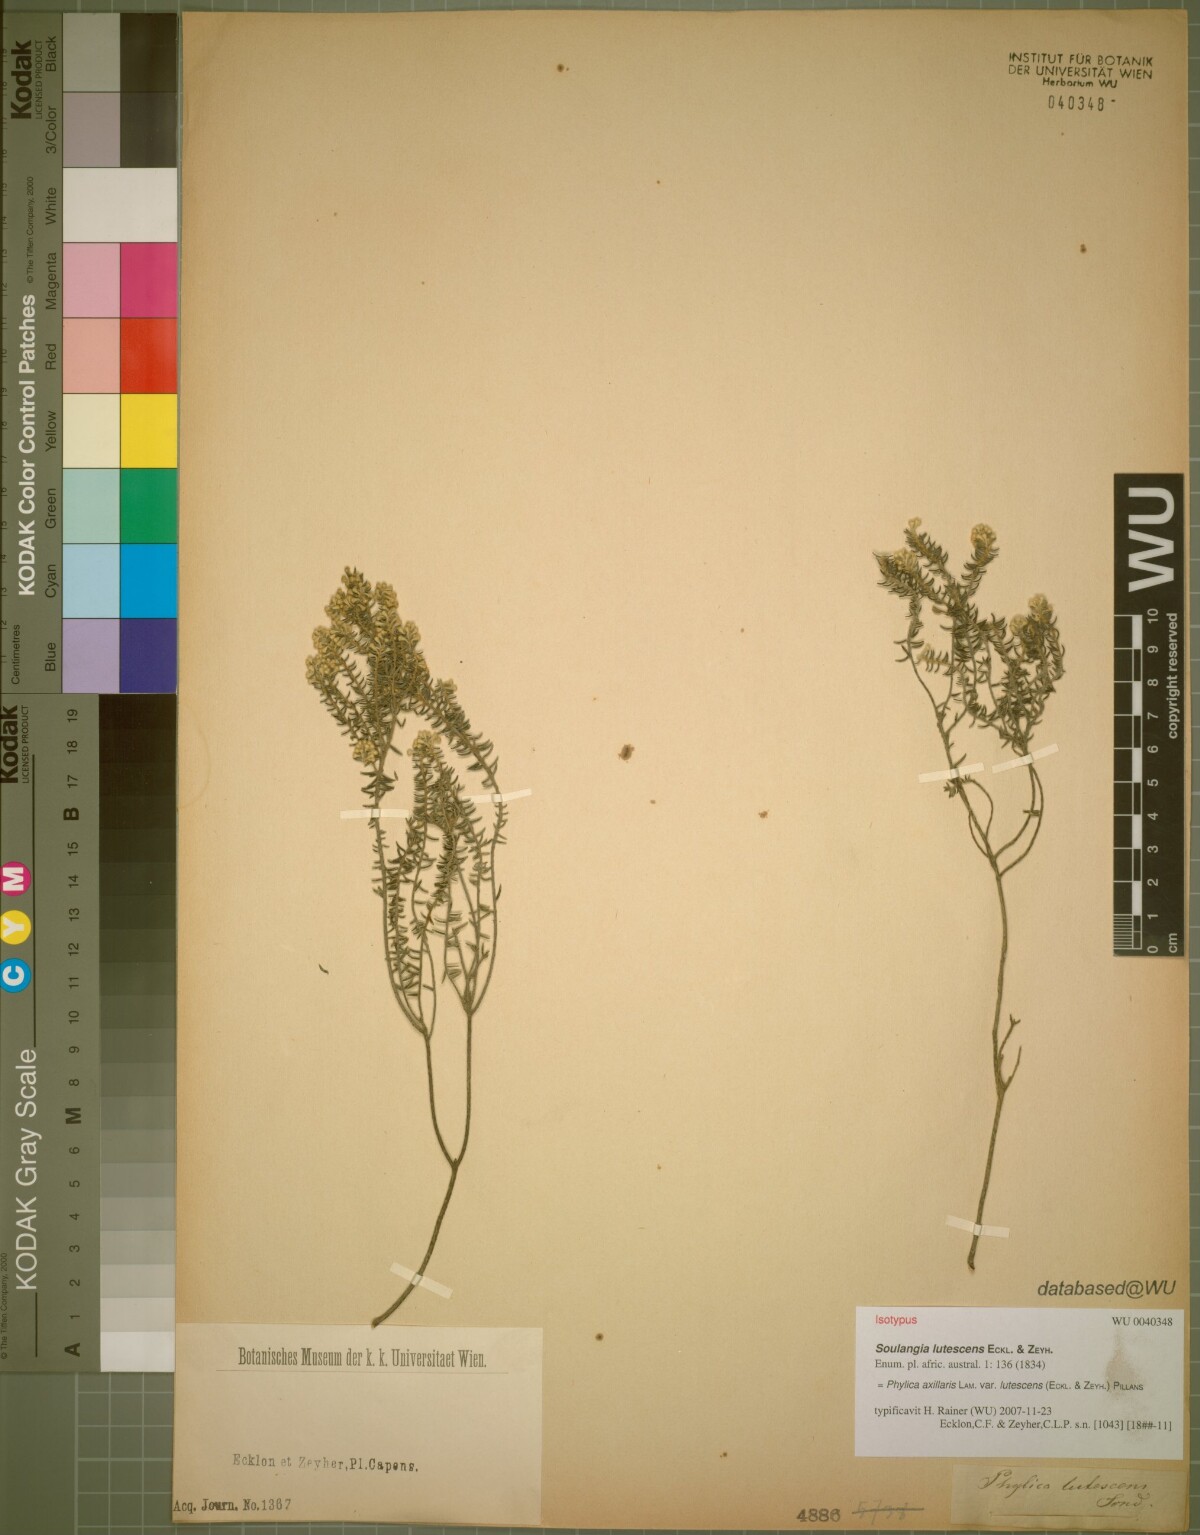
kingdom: Plantae
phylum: Tracheophyta
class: Magnoliopsida
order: Rosales
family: Rhamnaceae
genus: Phylica
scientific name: Phylica axillaris
